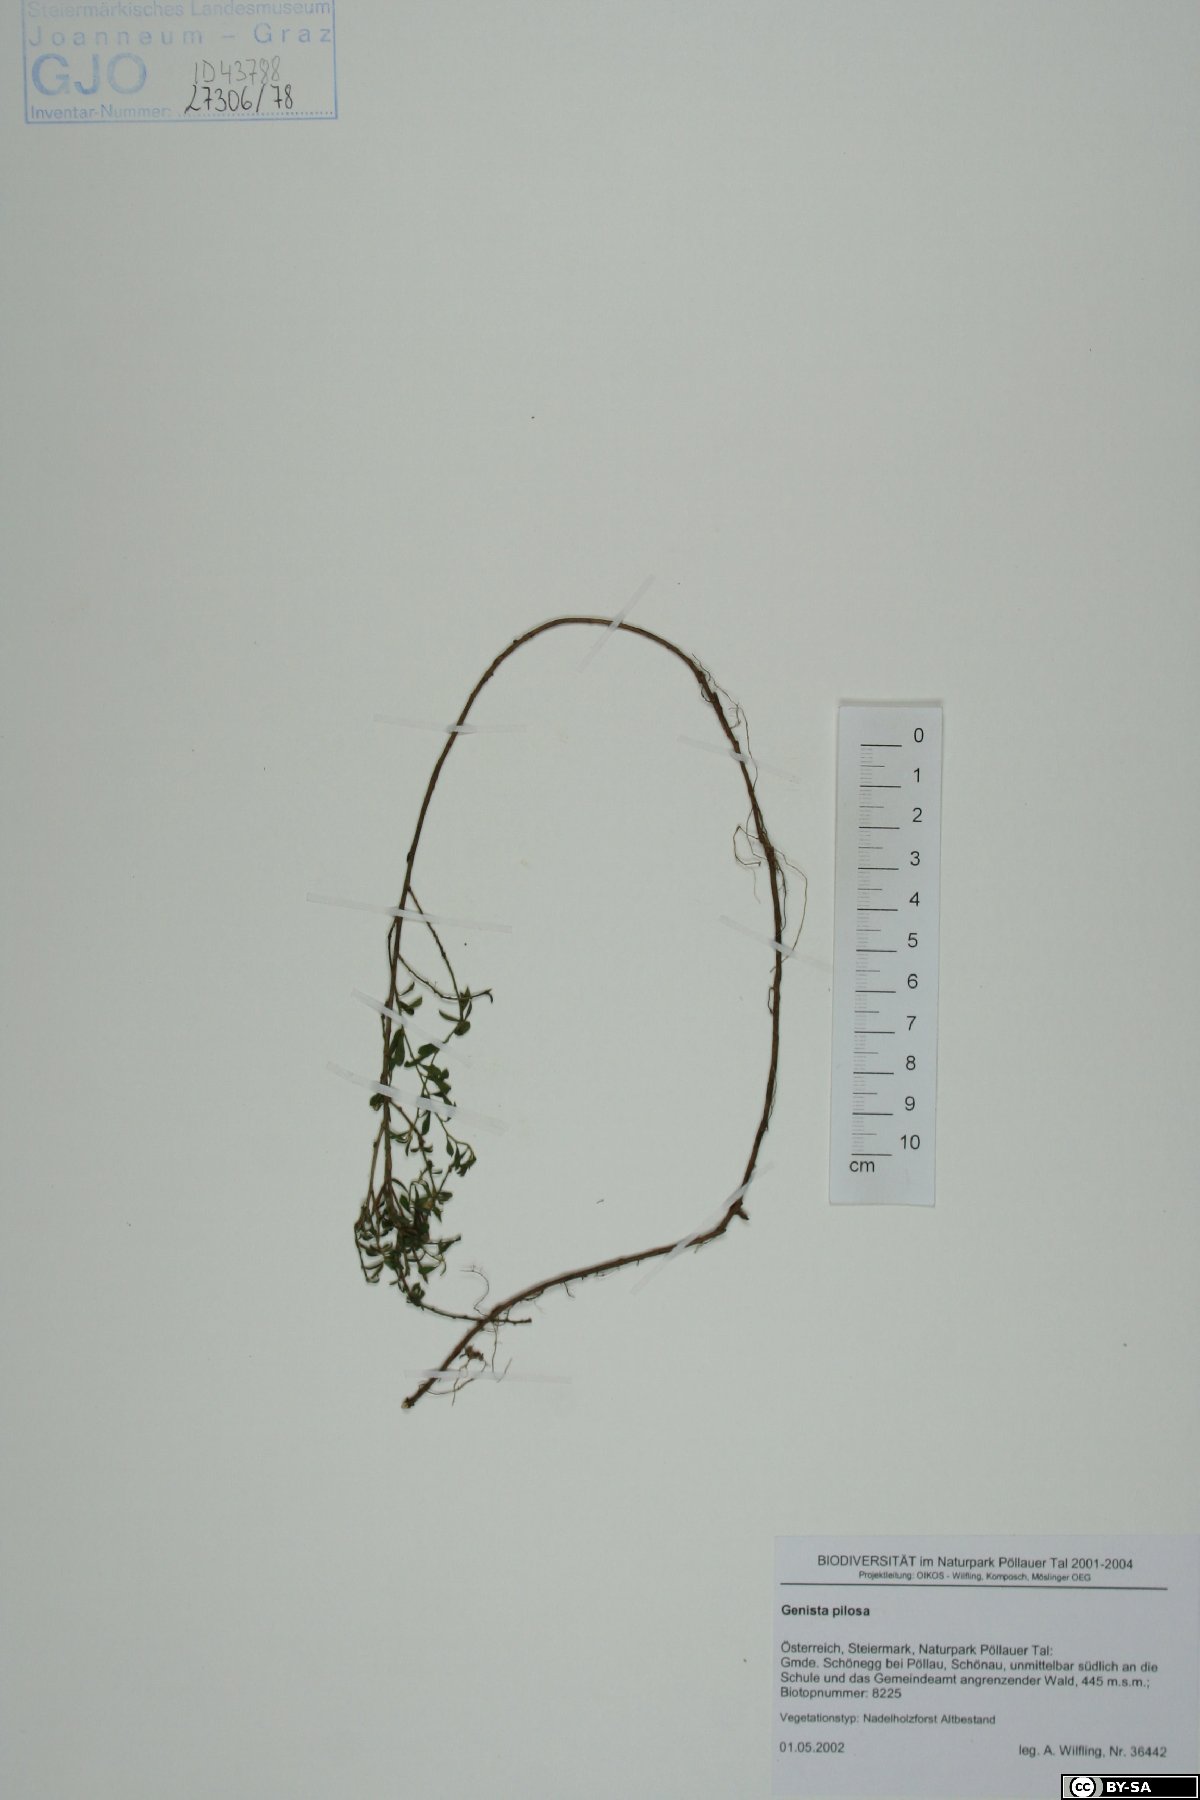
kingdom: Plantae
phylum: Tracheophyta
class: Magnoliopsida
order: Fabales
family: Fabaceae
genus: Genista
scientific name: Genista pilosa
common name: Hairy greenweed
